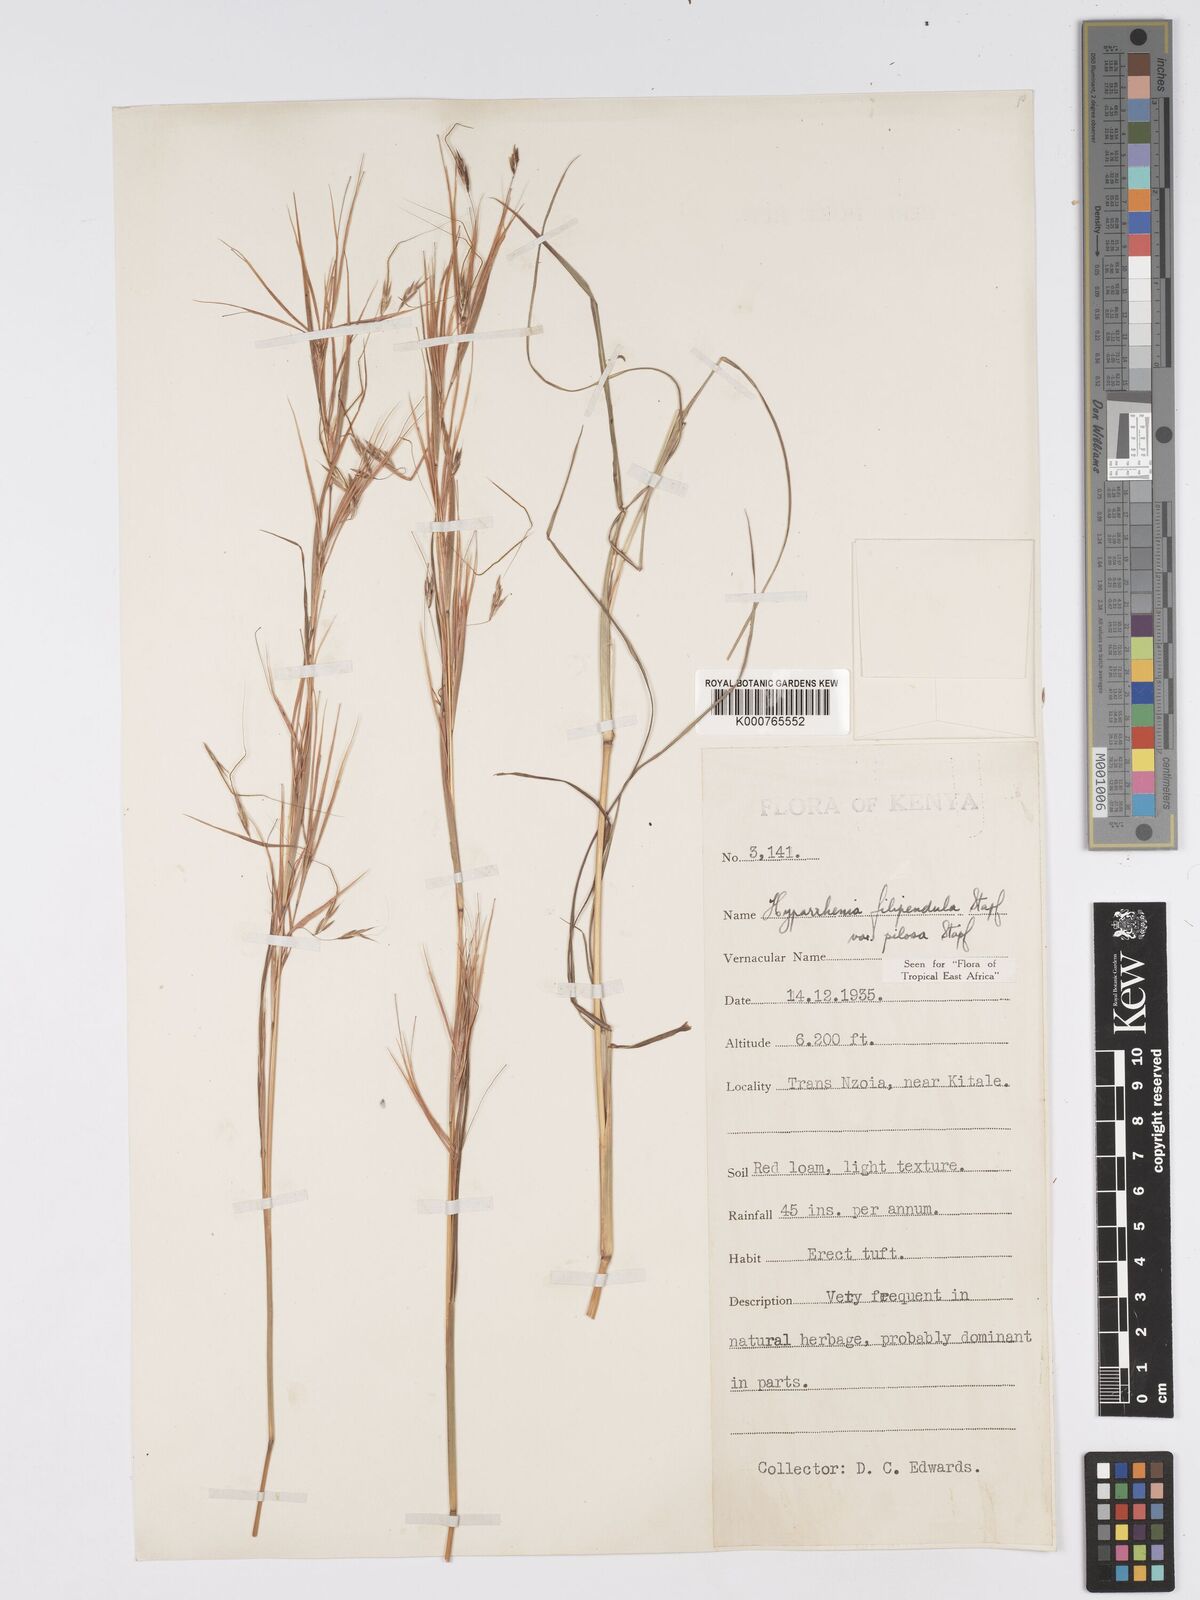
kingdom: Plantae
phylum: Tracheophyta
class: Liliopsida
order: Poales
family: Poaceae
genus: Hyparrhenia
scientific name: Hyparrhenia filipendula
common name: Tambookie grass
